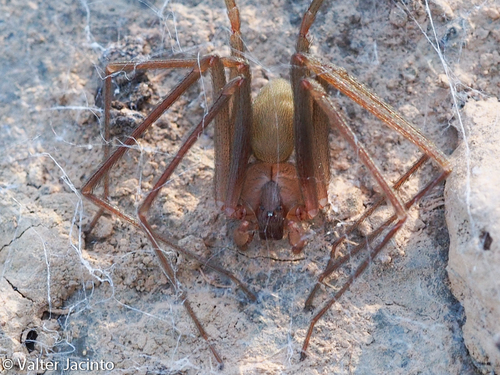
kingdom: Animalia
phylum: Arthropoda
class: Arachnida
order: Araneae
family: Sicariidae
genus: Loxosceles
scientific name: Loxosceles rufescens
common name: Mediterranean recluse spider
